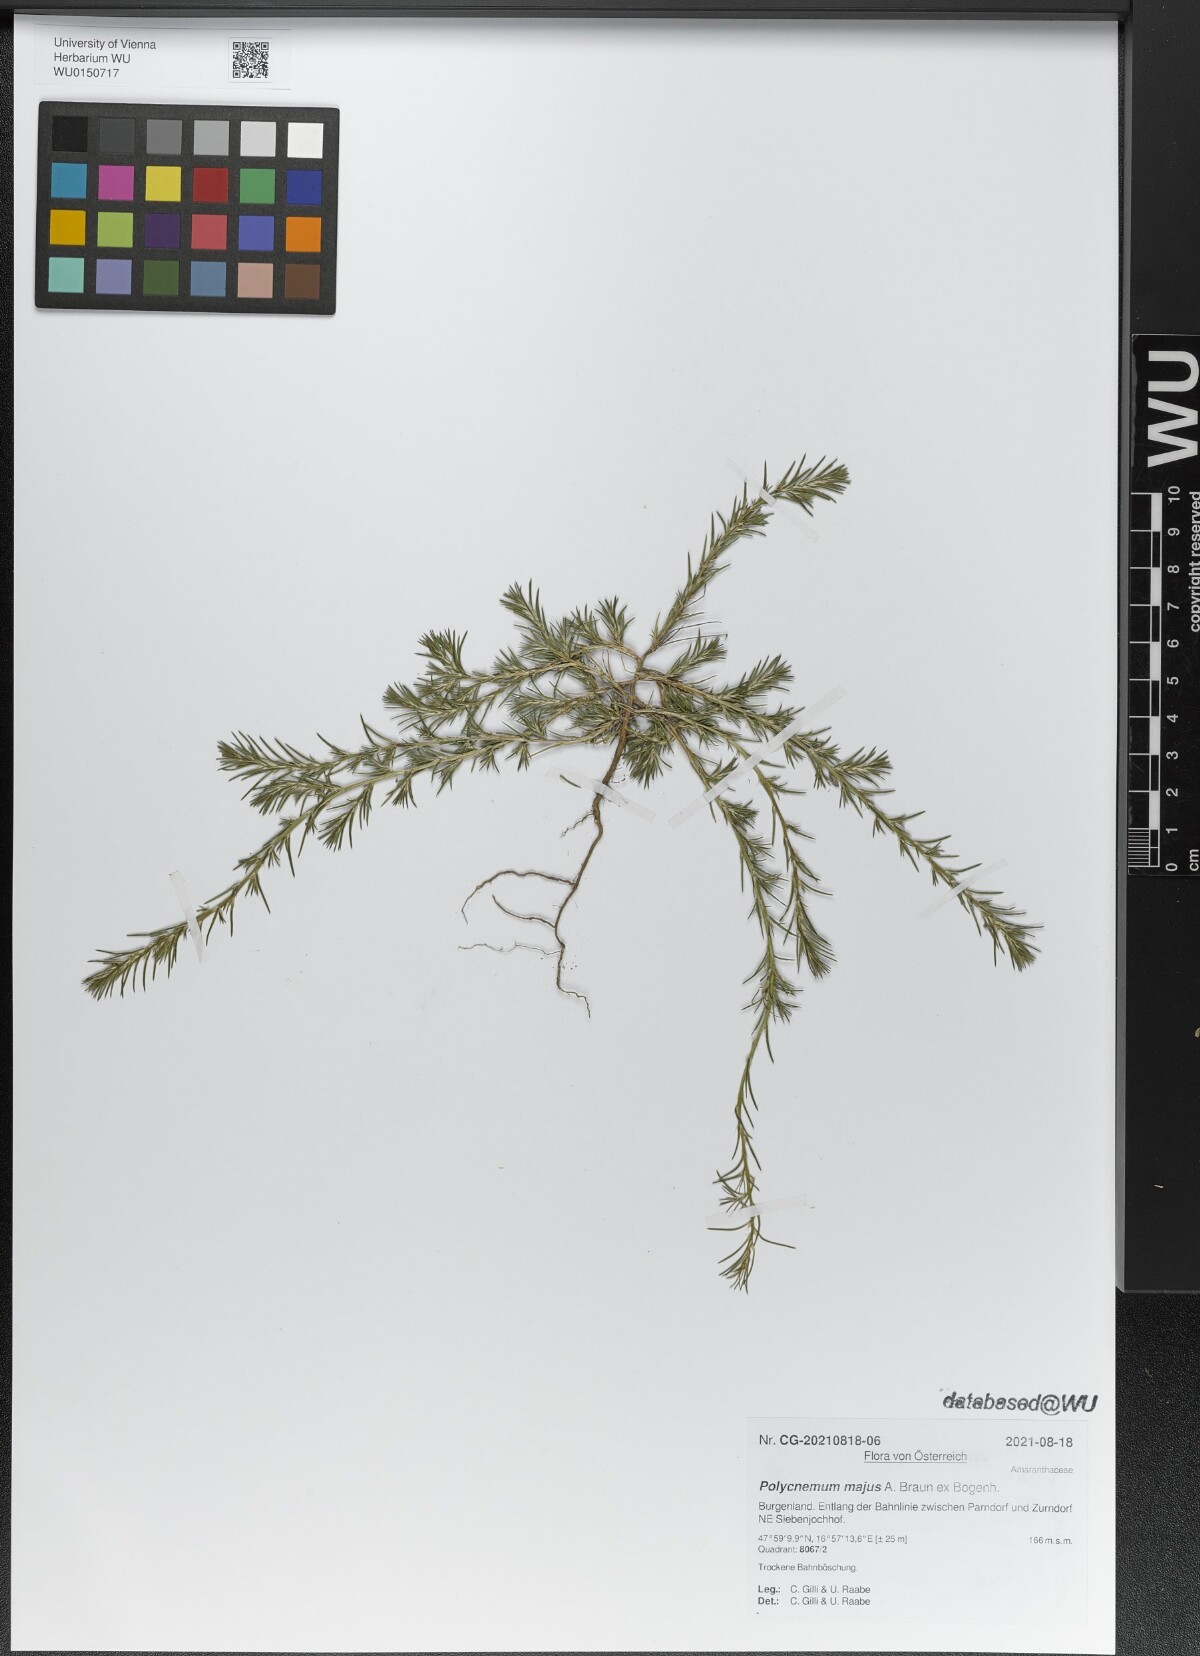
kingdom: Plantae
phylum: Tracheophyta
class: Magnoliopsida
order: Caryophyllales
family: Amaranthaceae
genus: Polycnemum
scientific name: Polycnemum majus
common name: Giant needleleaf
